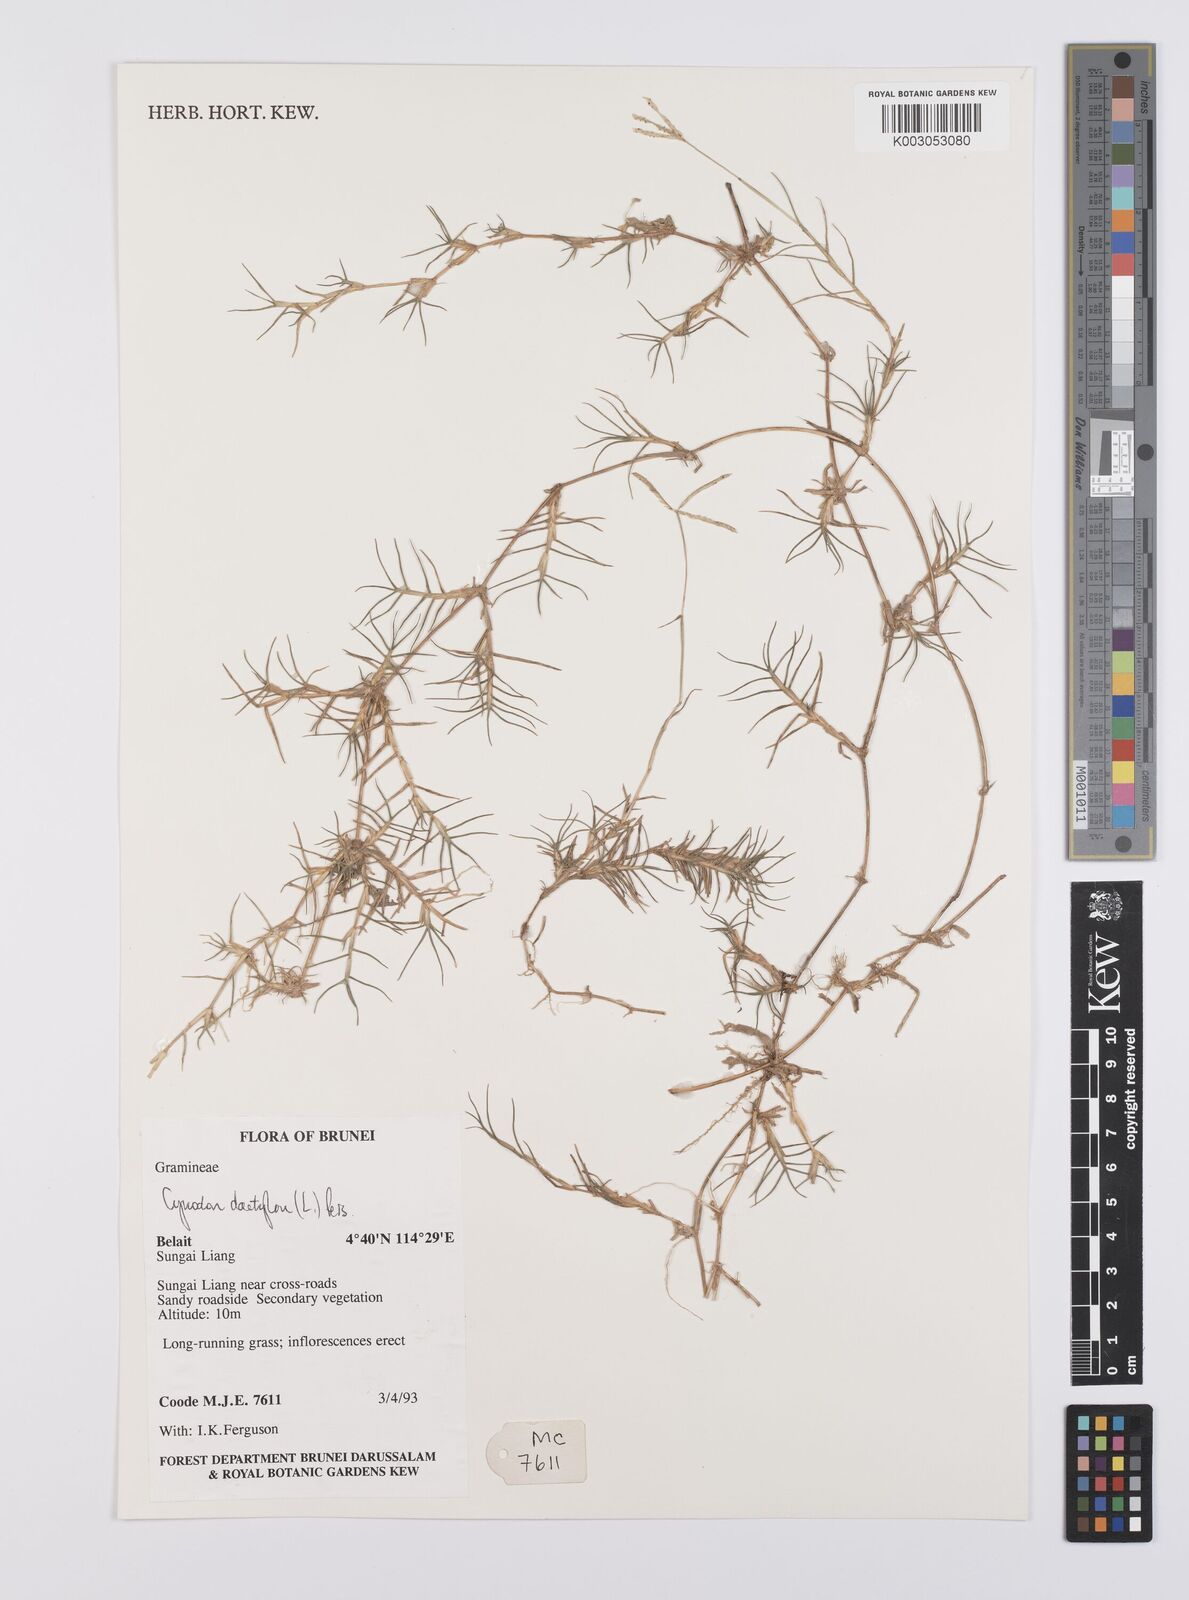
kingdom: Plantae
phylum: Tracheophyta
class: Liliopsida
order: Poales
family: Poaceae
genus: Cynodon
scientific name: Cynodon dactylon
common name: Bermuda grass
